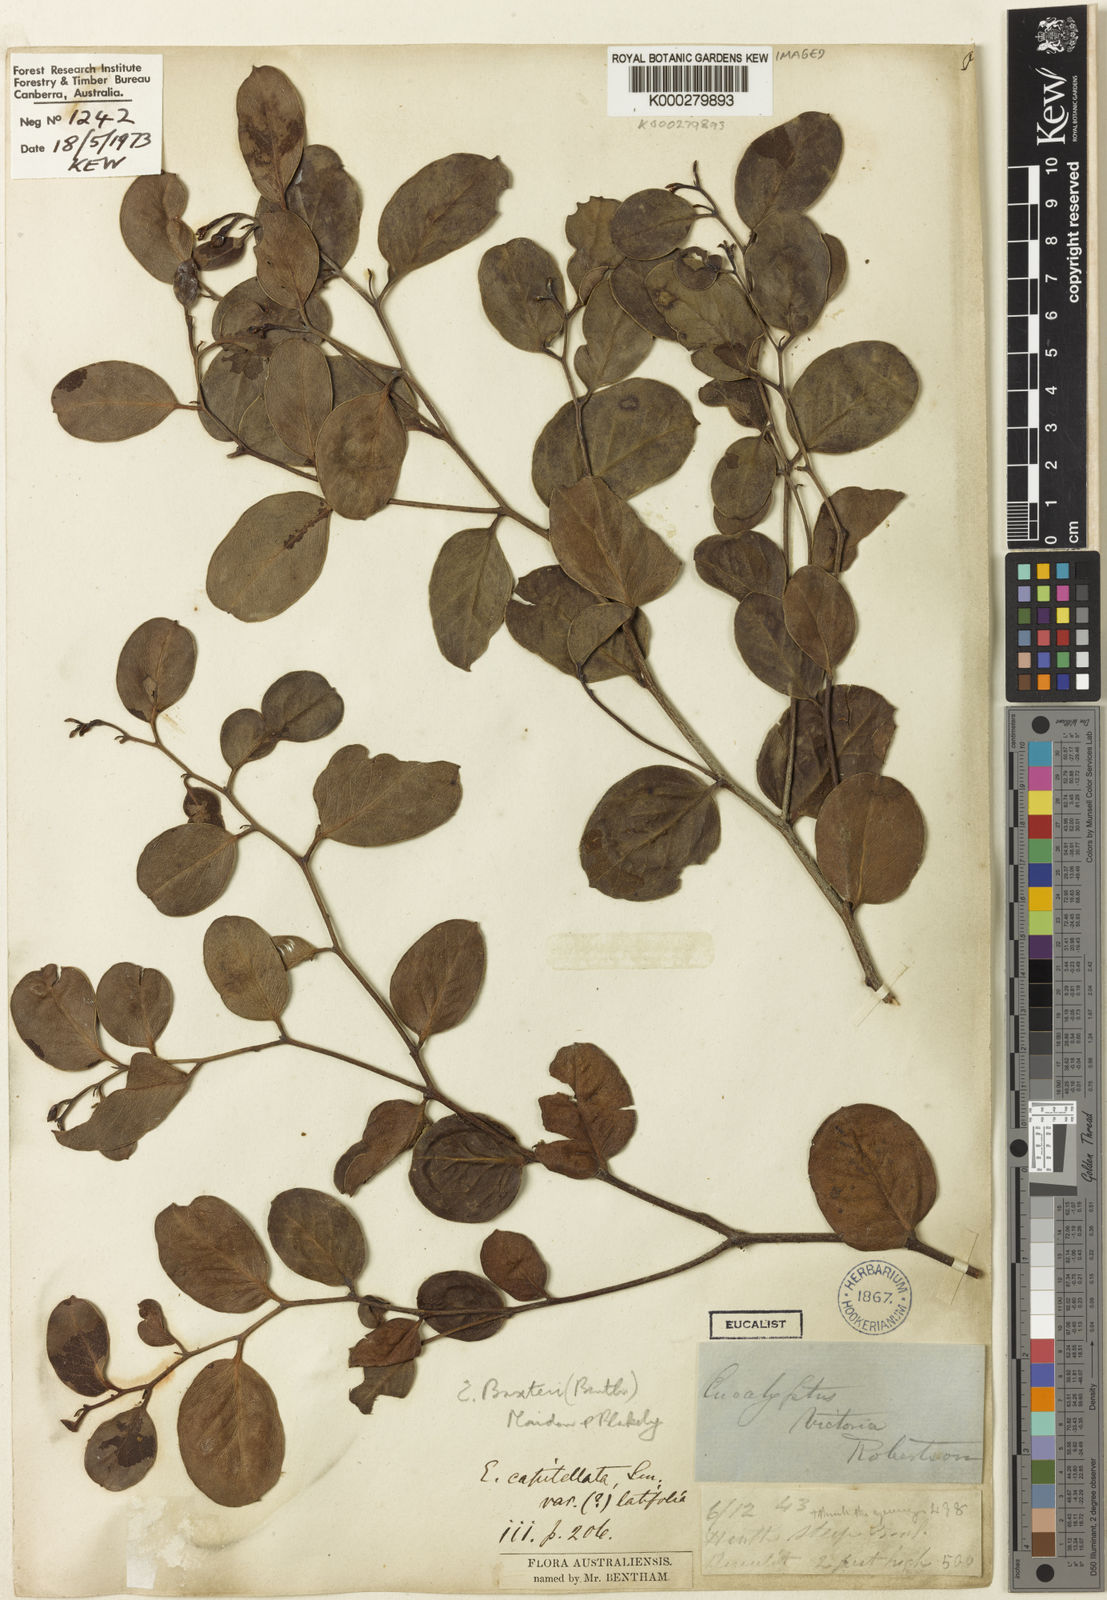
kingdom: Plantae
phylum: Tracheophyta
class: Magnoliopsida
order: Myrtales
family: Myrtaceae
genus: Eucalyptus
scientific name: Eucalyptus baxteri
